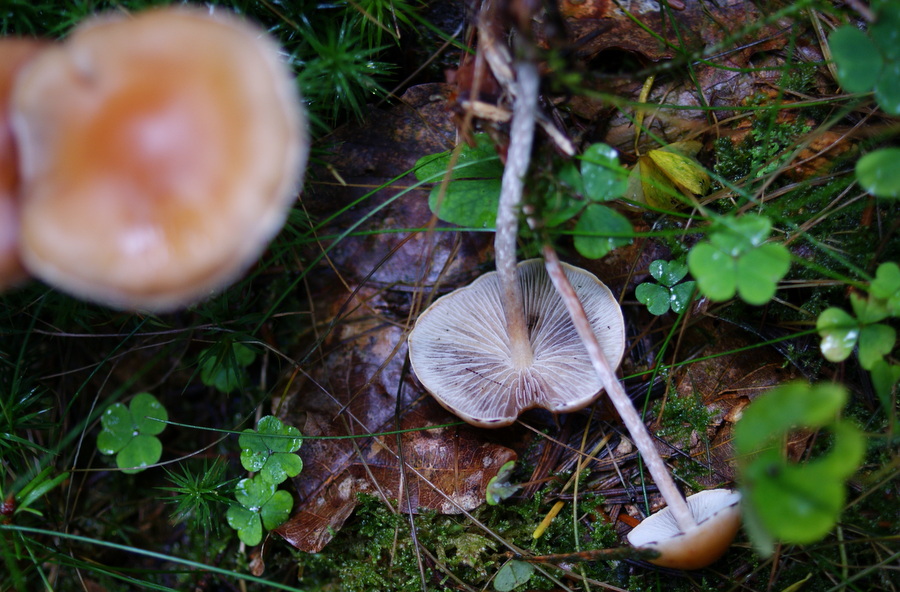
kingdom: Fungi
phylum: Basidiomycota
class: Agaricomycetes
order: Agaricales
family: Strophariaceae
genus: Hypholoma
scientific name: Hypholoma marginatum
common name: enlig svovlhat
